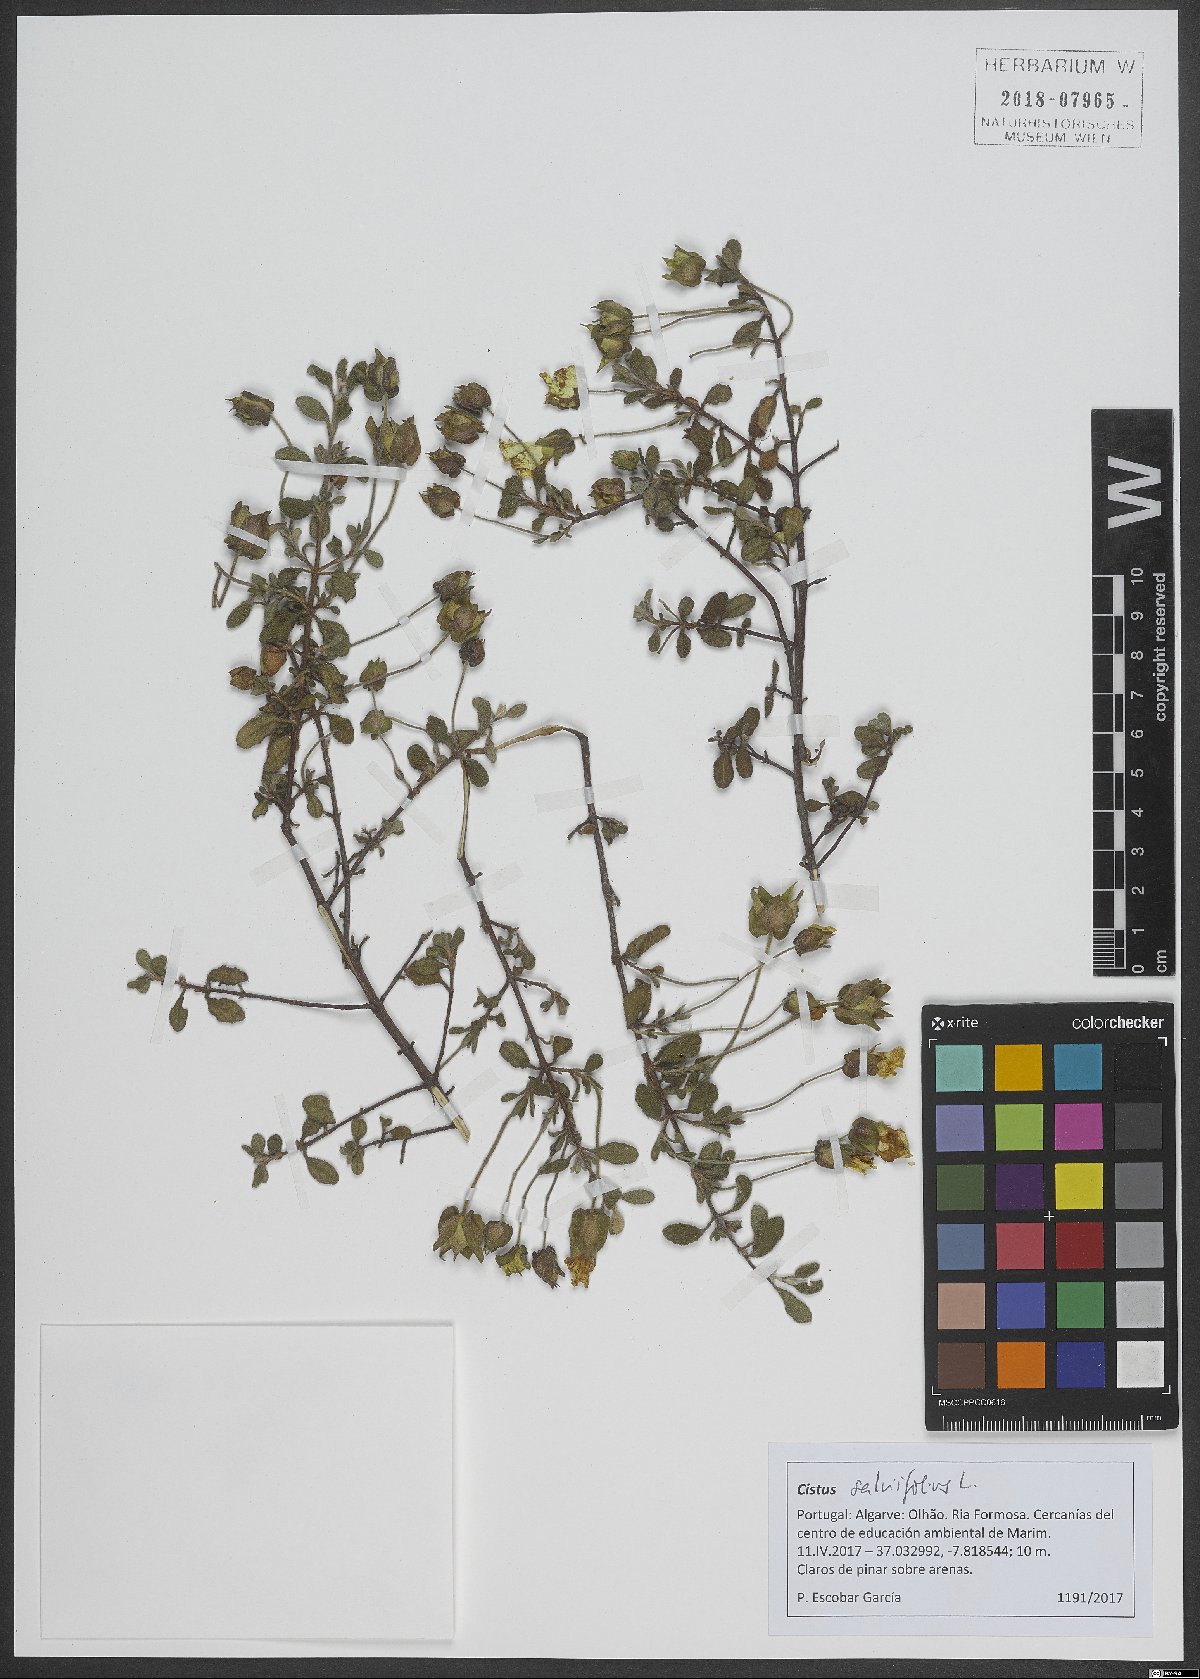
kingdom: Plantae
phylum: Tracheophyta
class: Magnoliopsida
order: Malvales
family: Cistaceae
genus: Cistus
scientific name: Cistus salviifolius
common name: Salvia cistus
